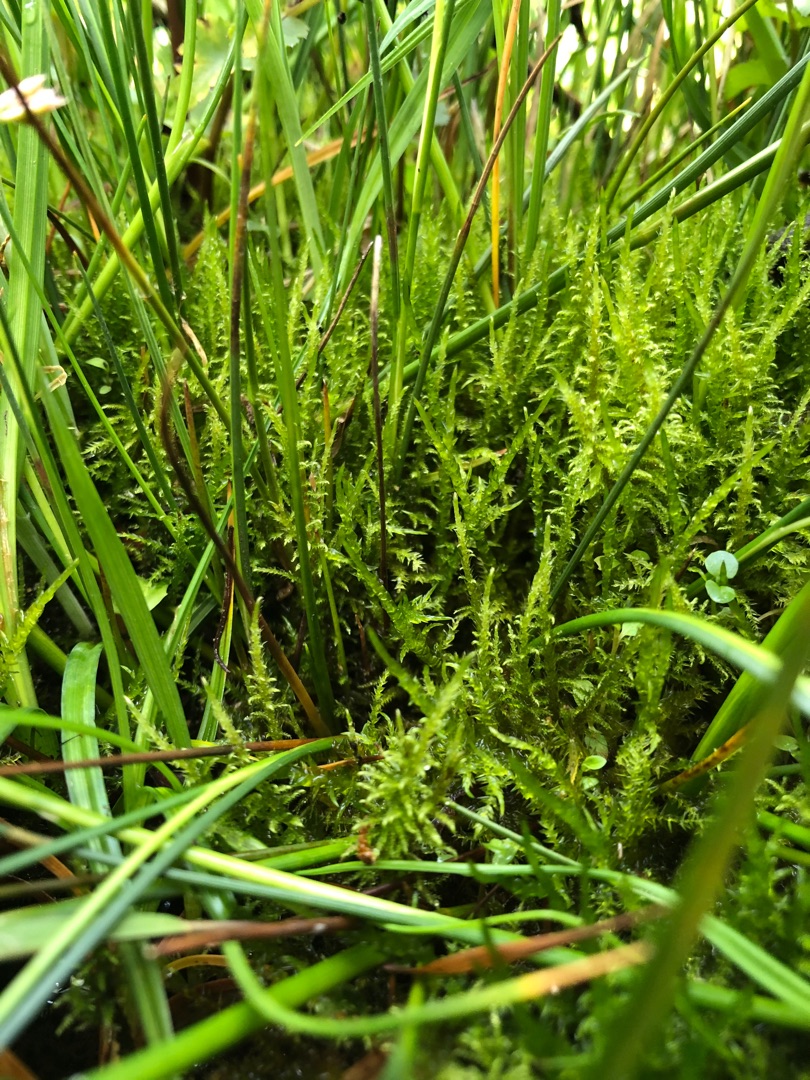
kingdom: Plantae
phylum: Bryophyta
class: Bryopsida
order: Hypnales
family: Amblystegiaceae
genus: Cratoneuron
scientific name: Cratoneuron filicinum
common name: Grøn eremitmos
